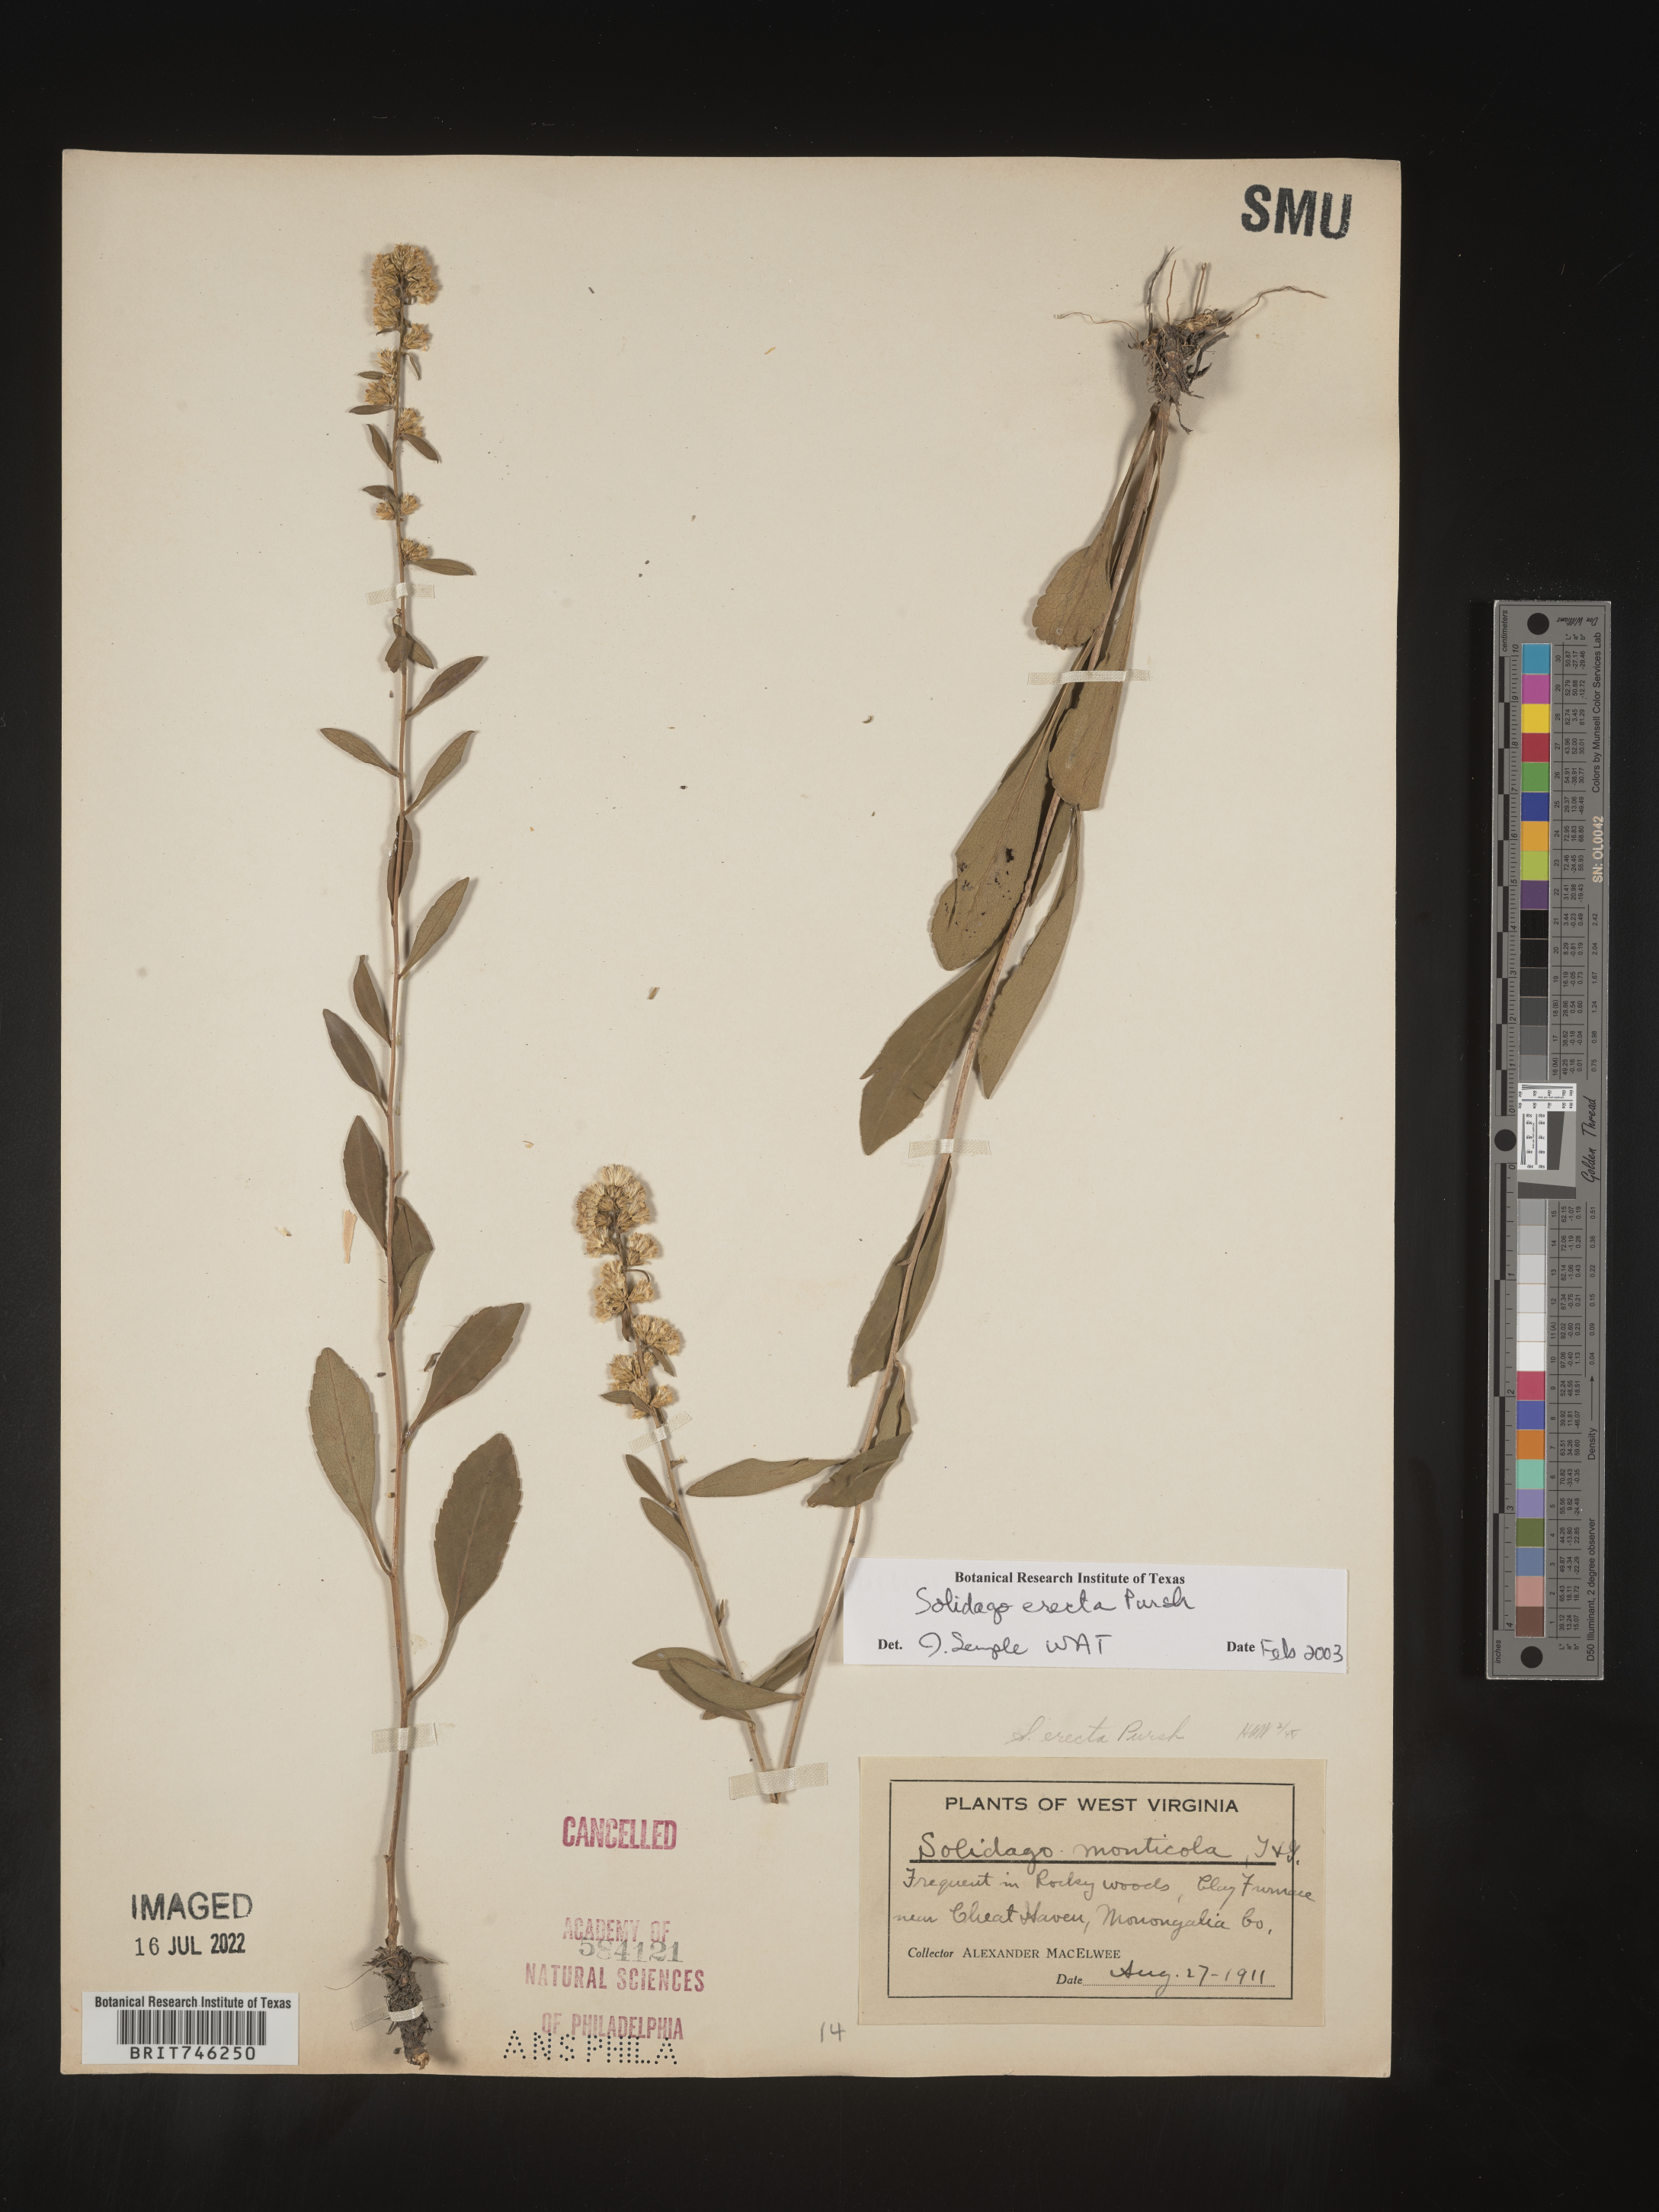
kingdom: Plantae
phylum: Tracheophyta
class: Magnoliopsida
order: Asterales
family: Asteraceae
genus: Solidago
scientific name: Solidago erecta
